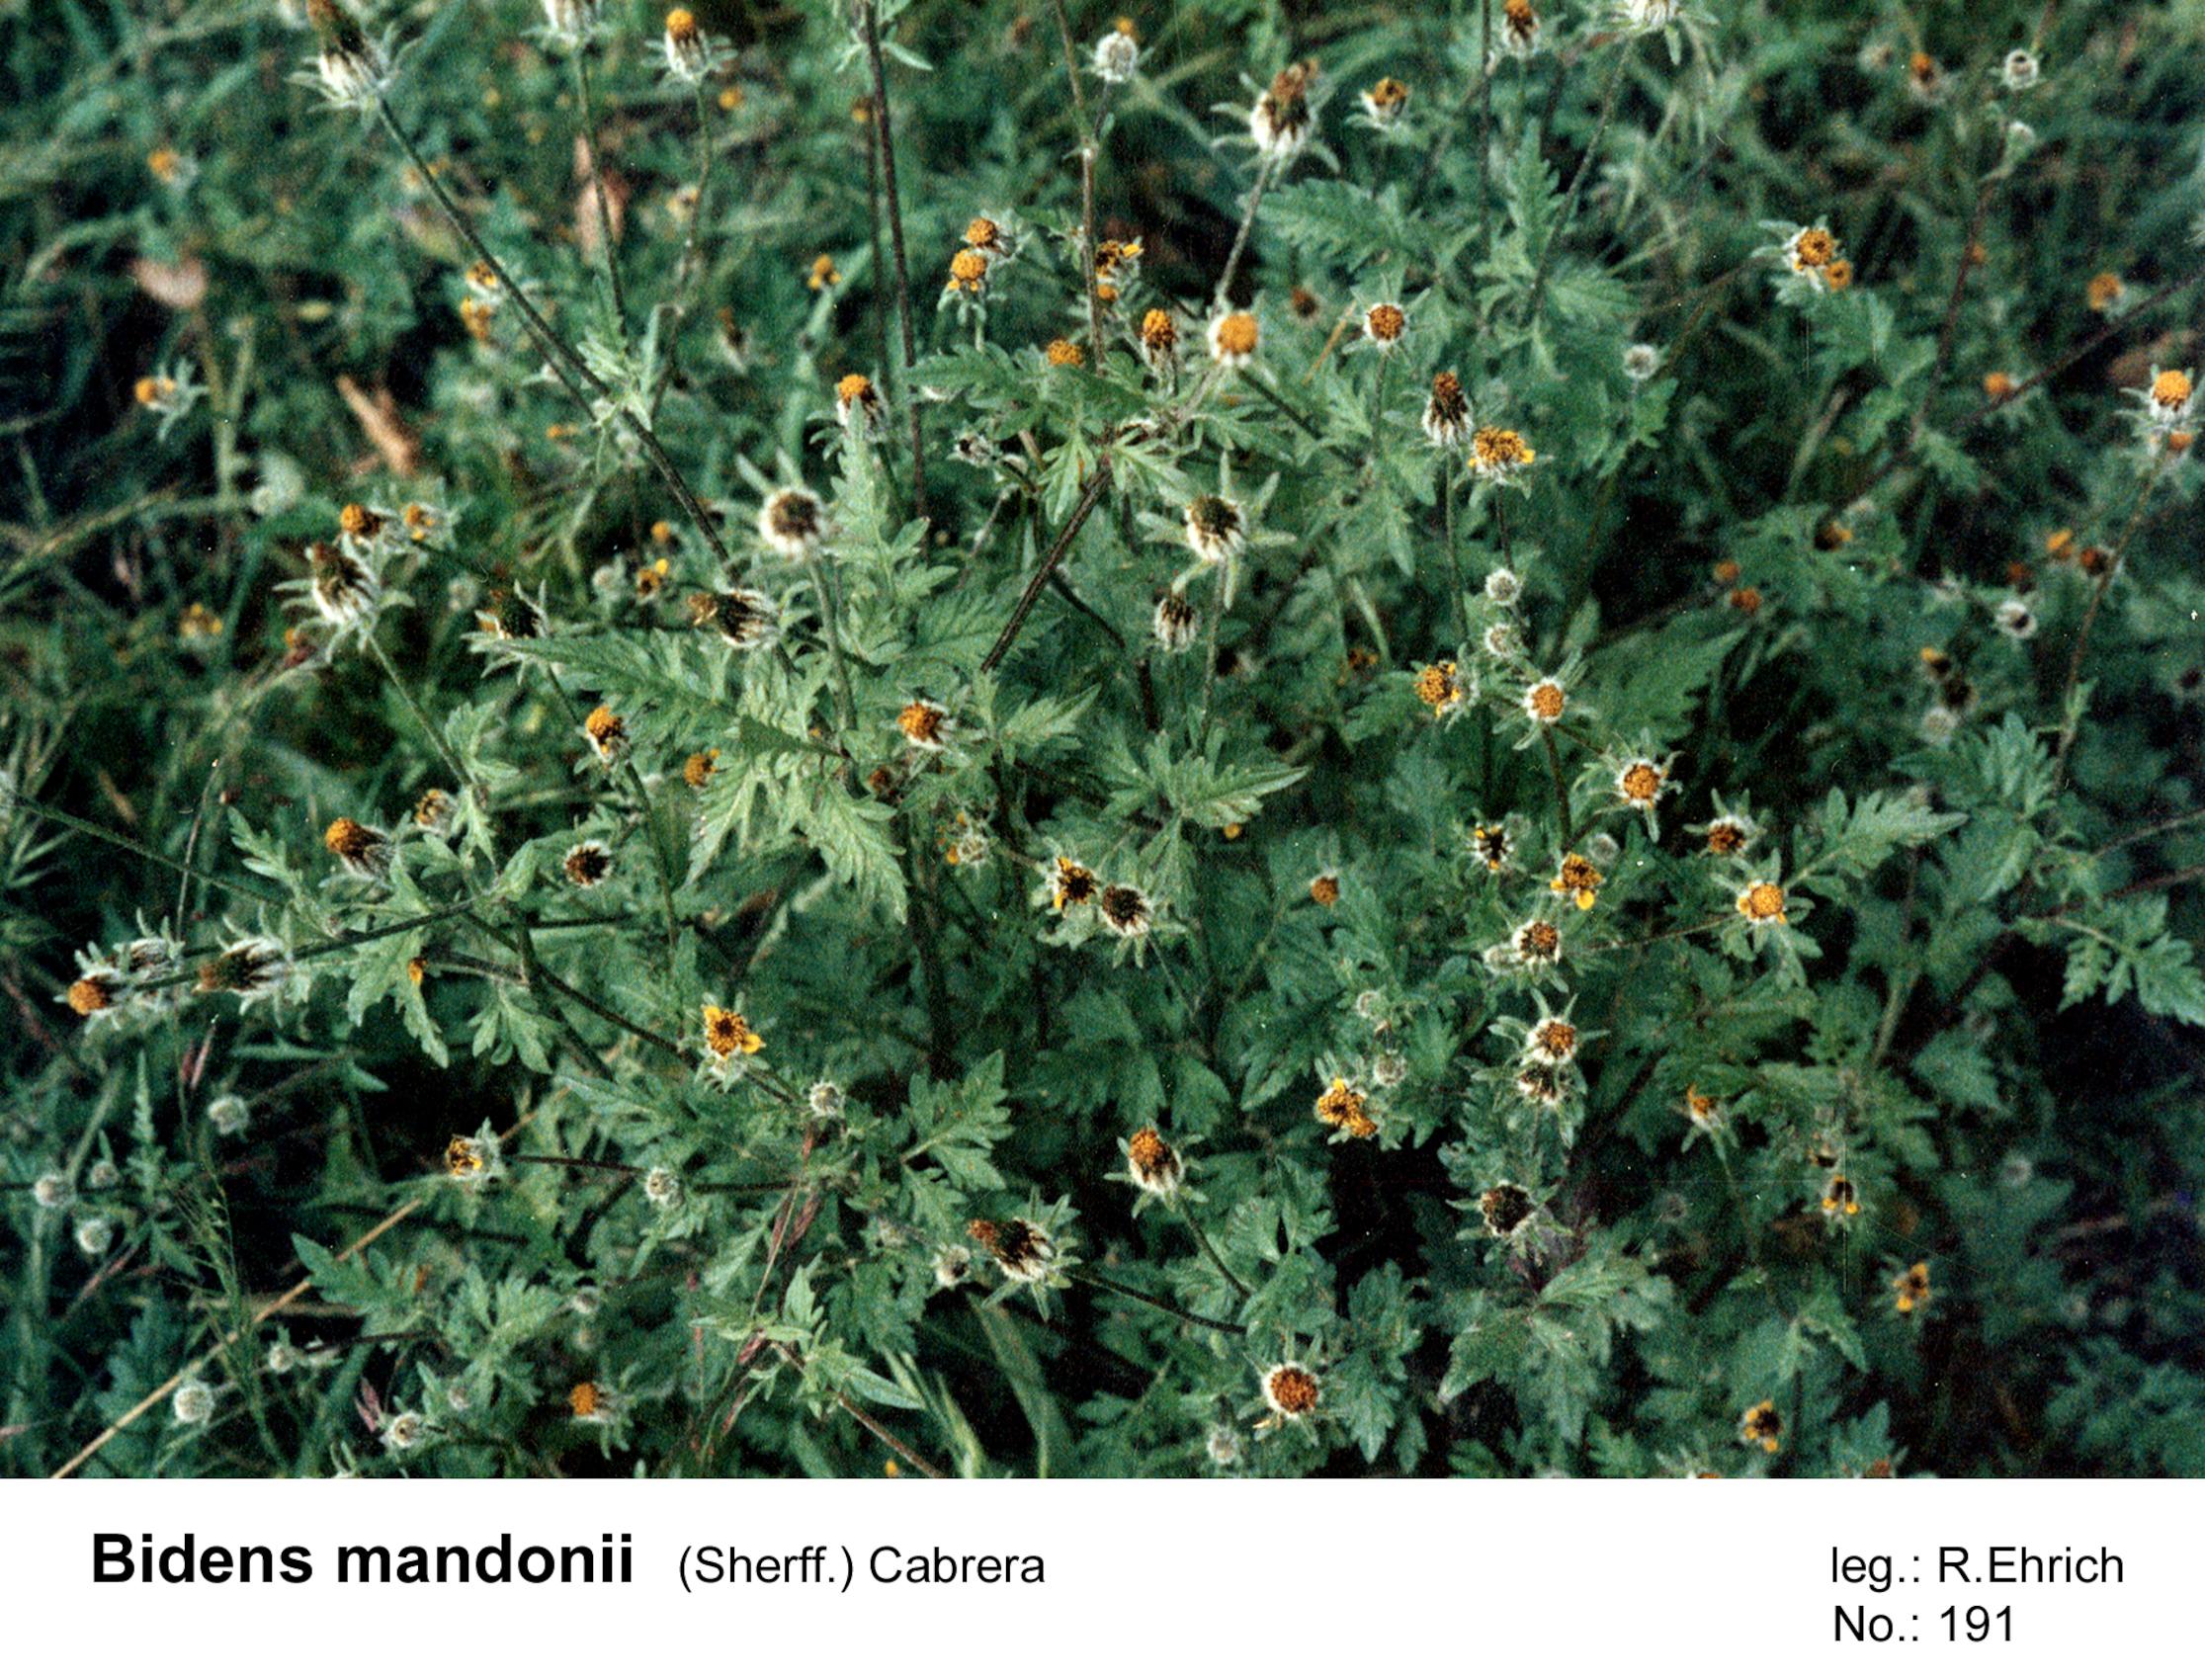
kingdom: Plantae
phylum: Tracheophyta
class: Magnoliopsida
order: Asterales
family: Asteraceae
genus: Bidens
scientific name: Bidens mandonii
